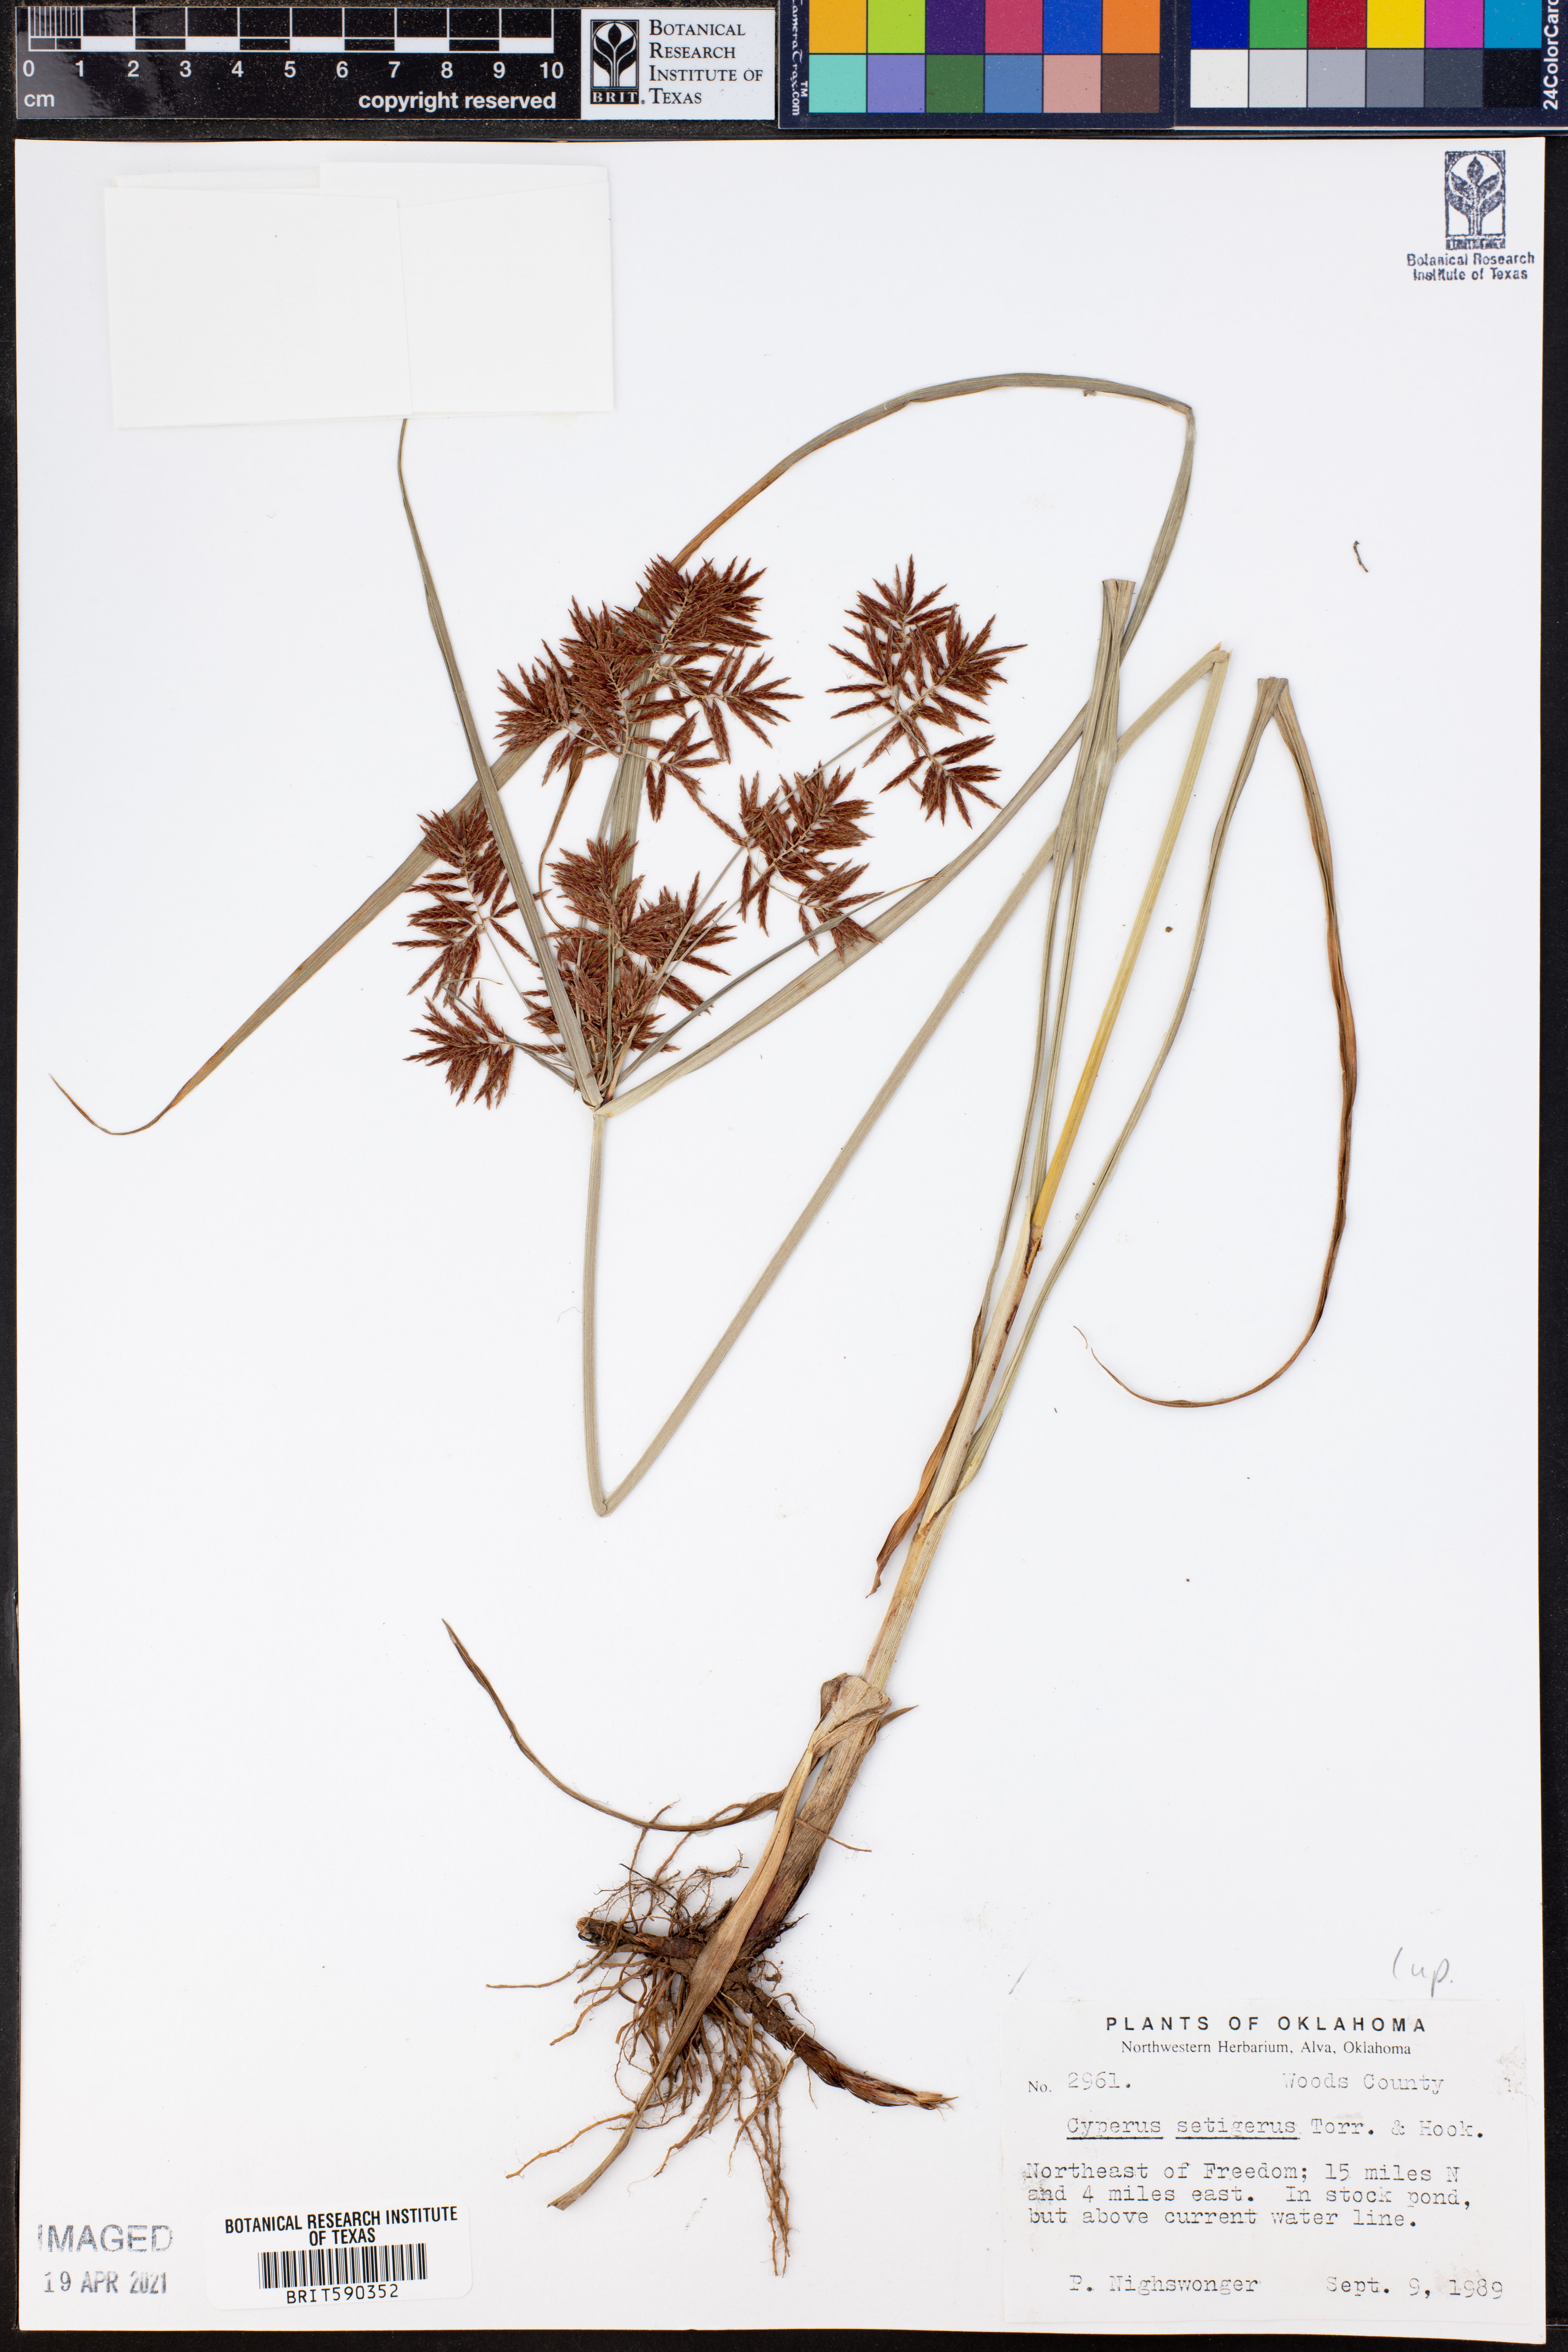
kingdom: Plantae
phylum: Tracheophyta
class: Liliopsida
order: Poales
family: Cyperaceae
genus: Cyperus
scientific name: Cyperus setigerus
